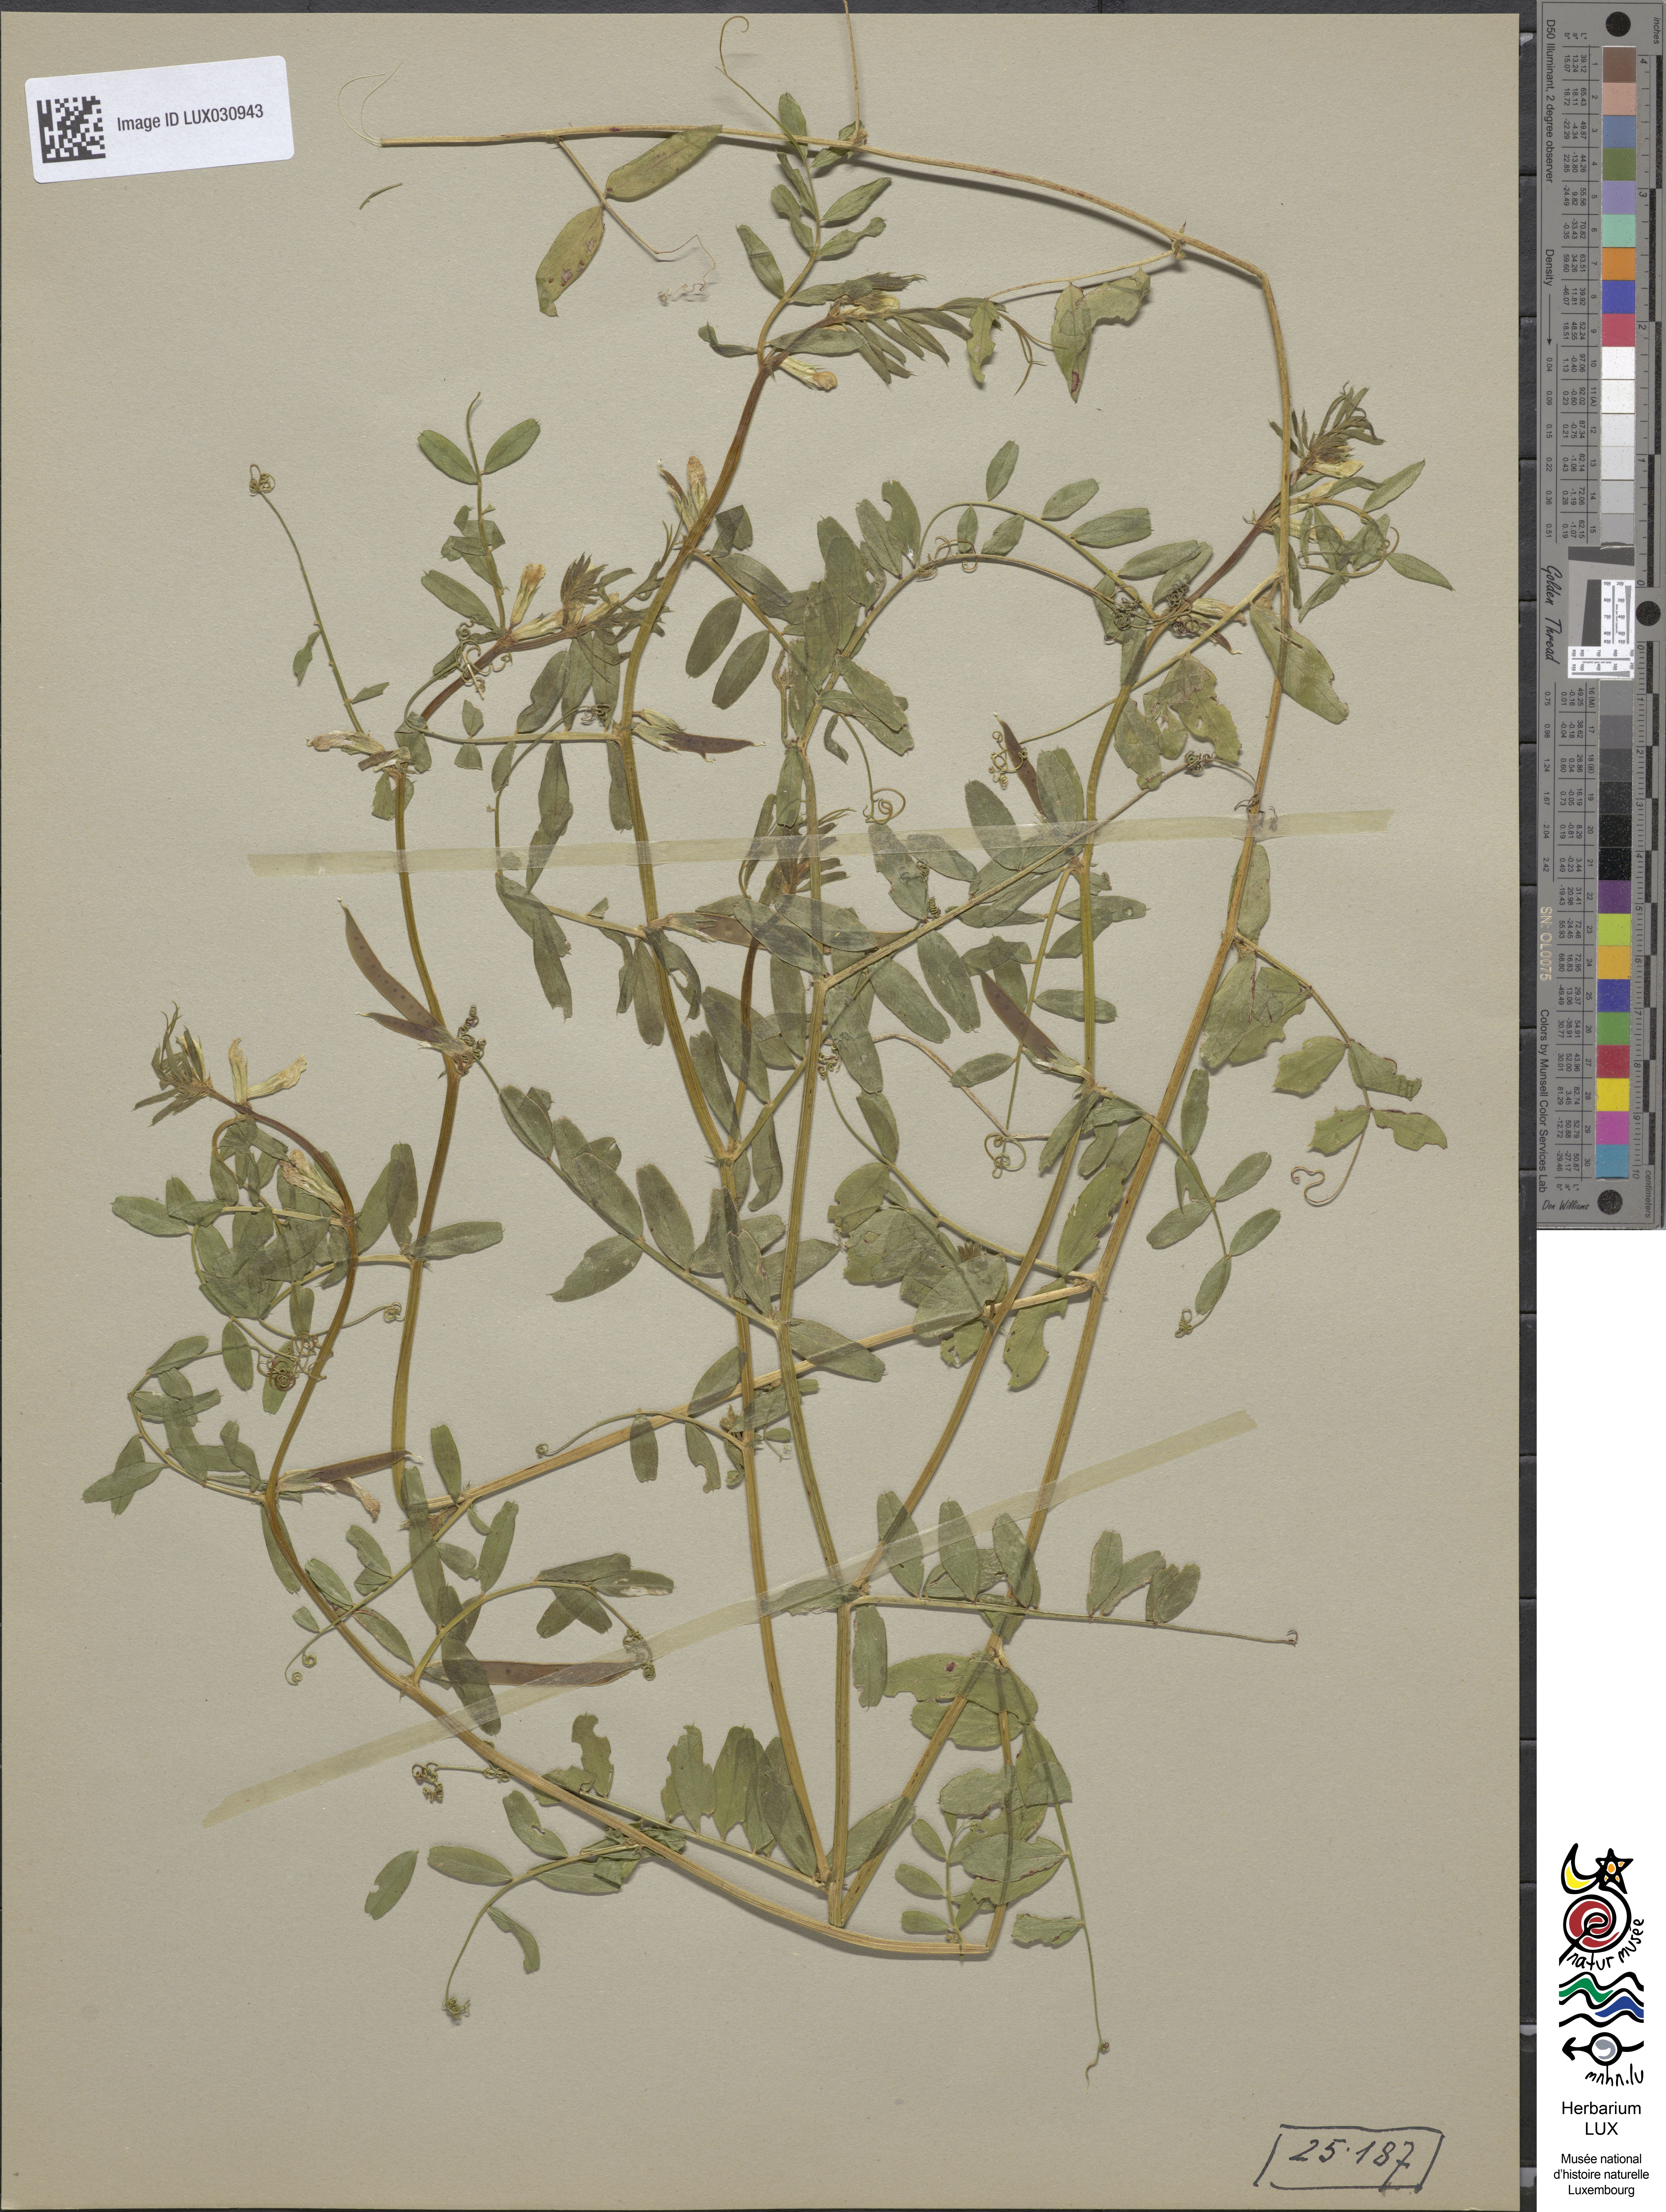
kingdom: Plantae
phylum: Tracheophyta
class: Magnoliopsida
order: Fabales
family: Fabaceae
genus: Vicia
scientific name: Vicia sativa
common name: Garden vetch
